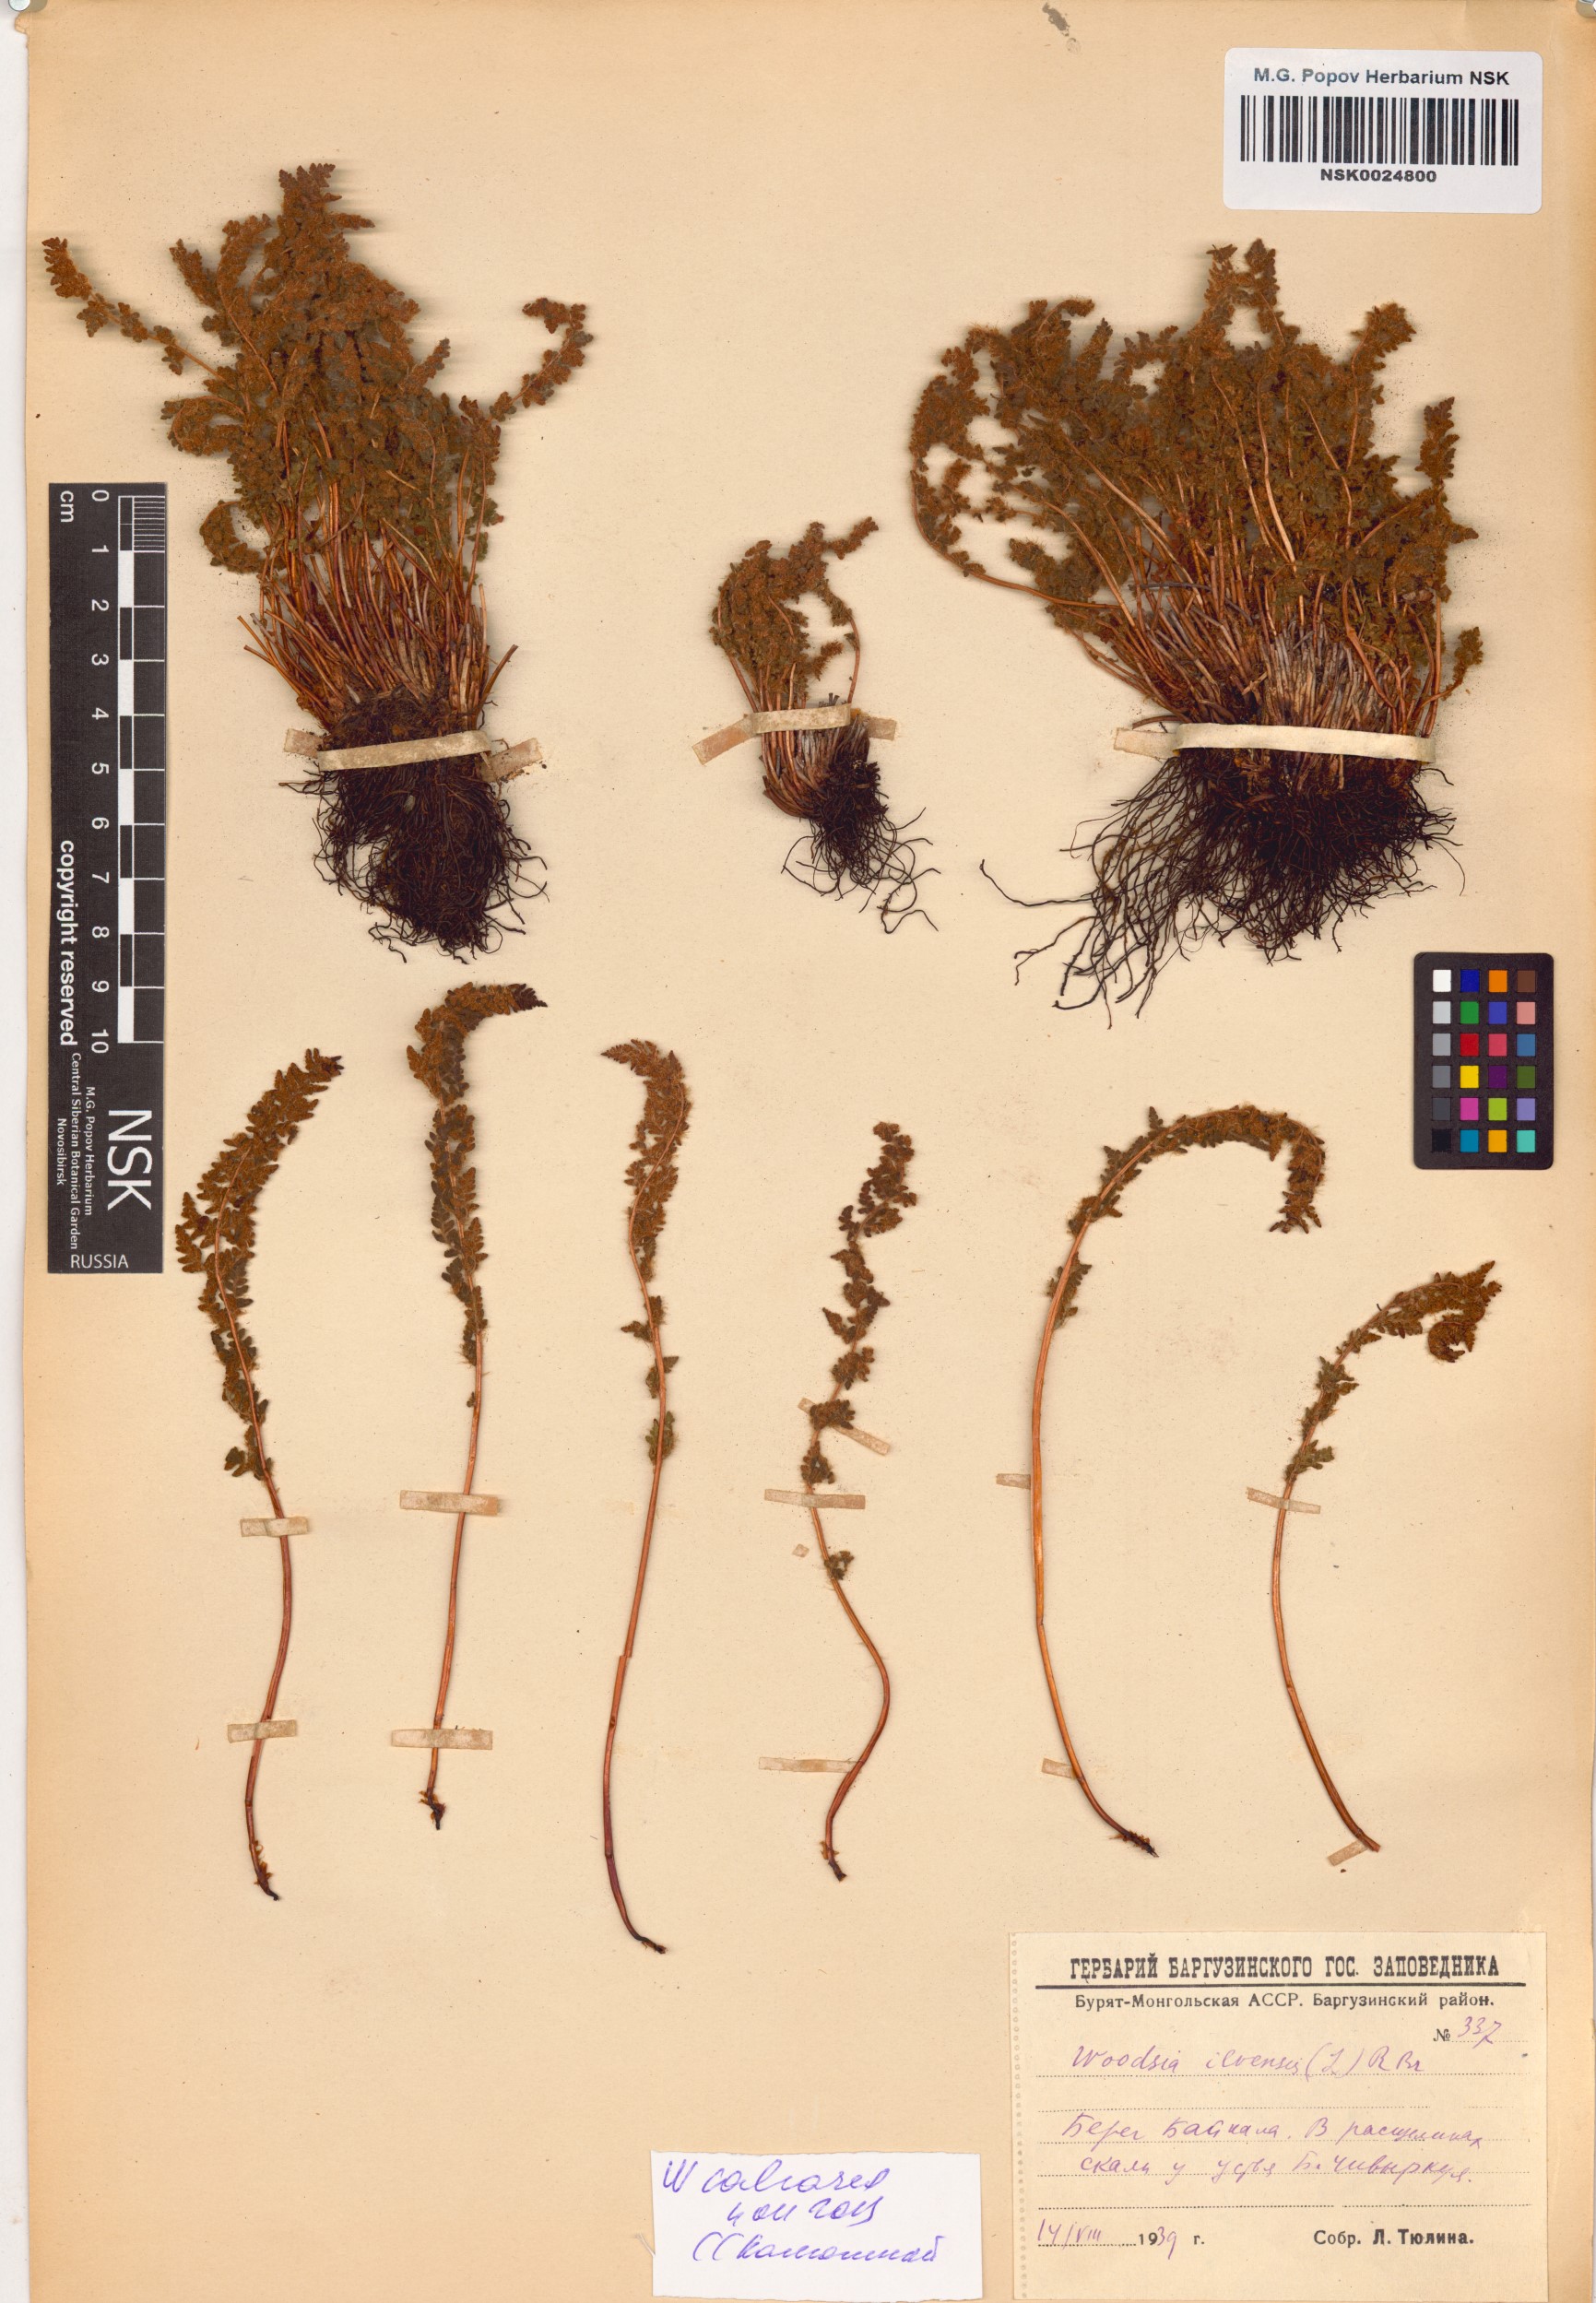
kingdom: Plantae
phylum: Tracheophyta
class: Polypodiopsida
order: Polypodiales
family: Woodsiaceae
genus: Woodsia
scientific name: Woodsia calcarea
